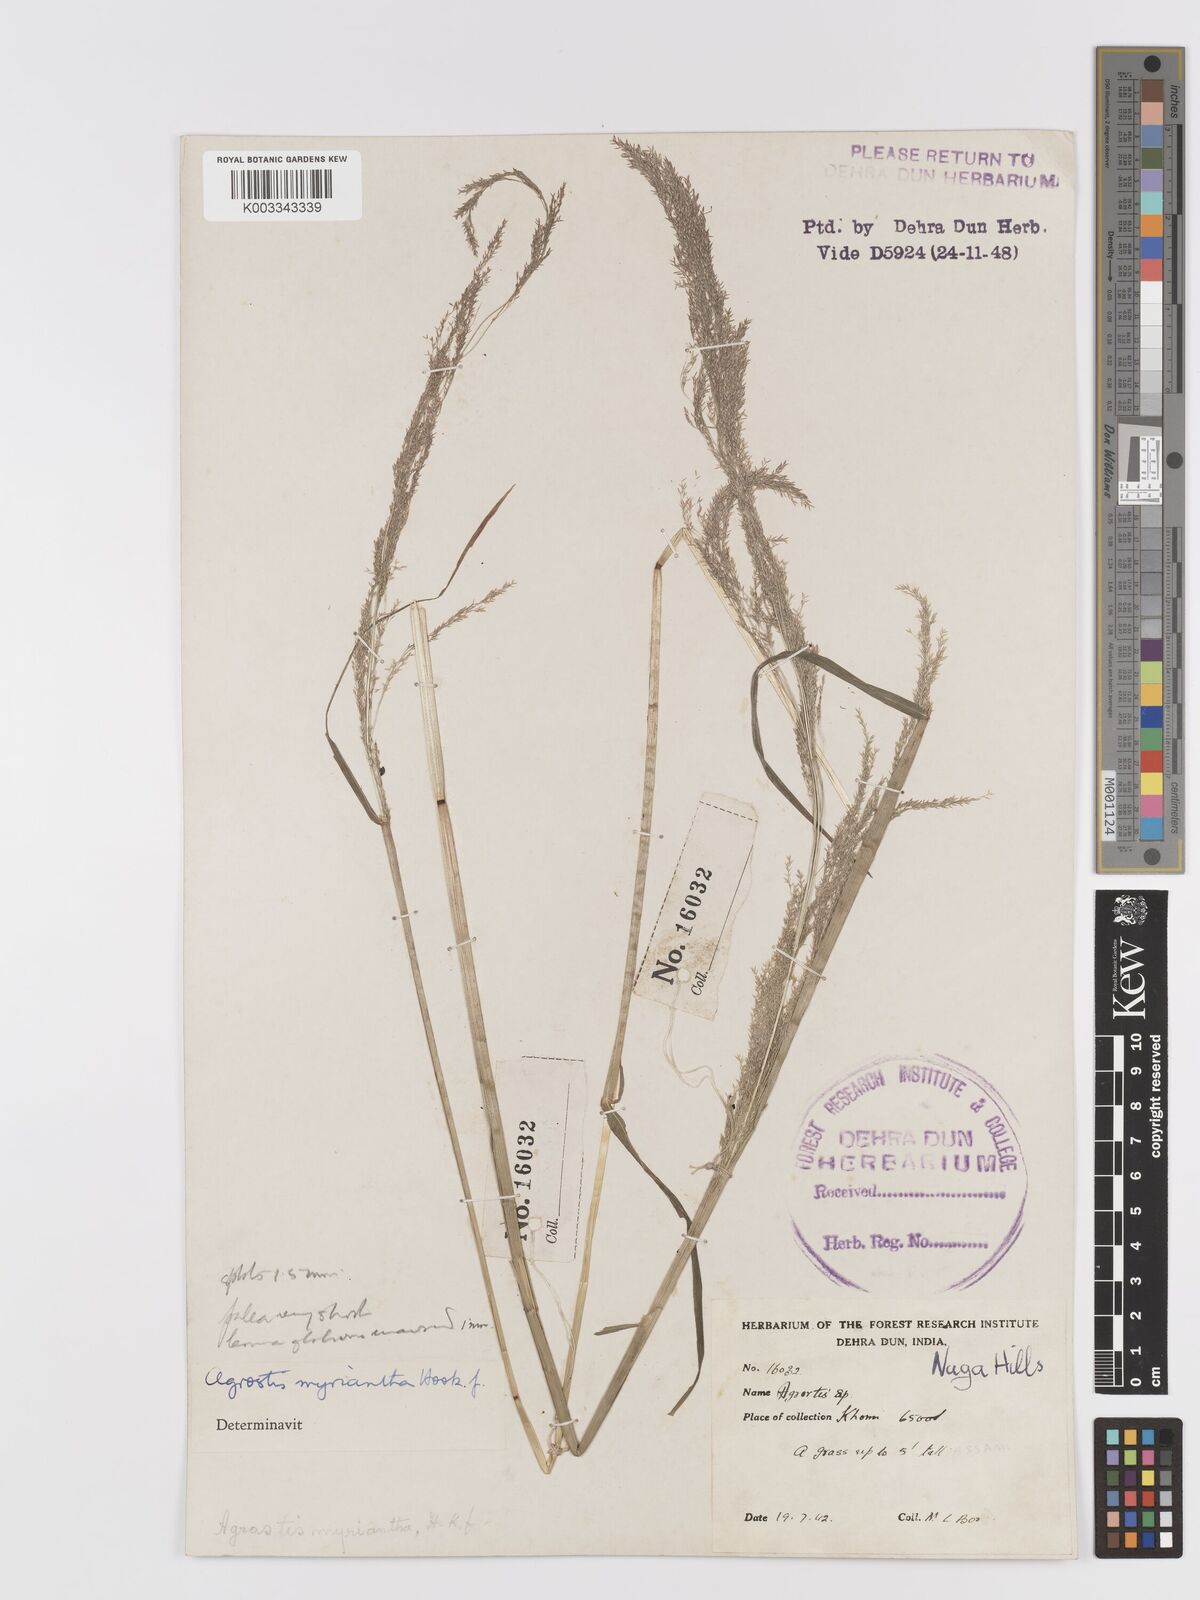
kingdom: Plantae
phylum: Tracheophyta
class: Liliopsida
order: Poales
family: Poaceae
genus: Agrostis
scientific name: Agrostis micrantha
